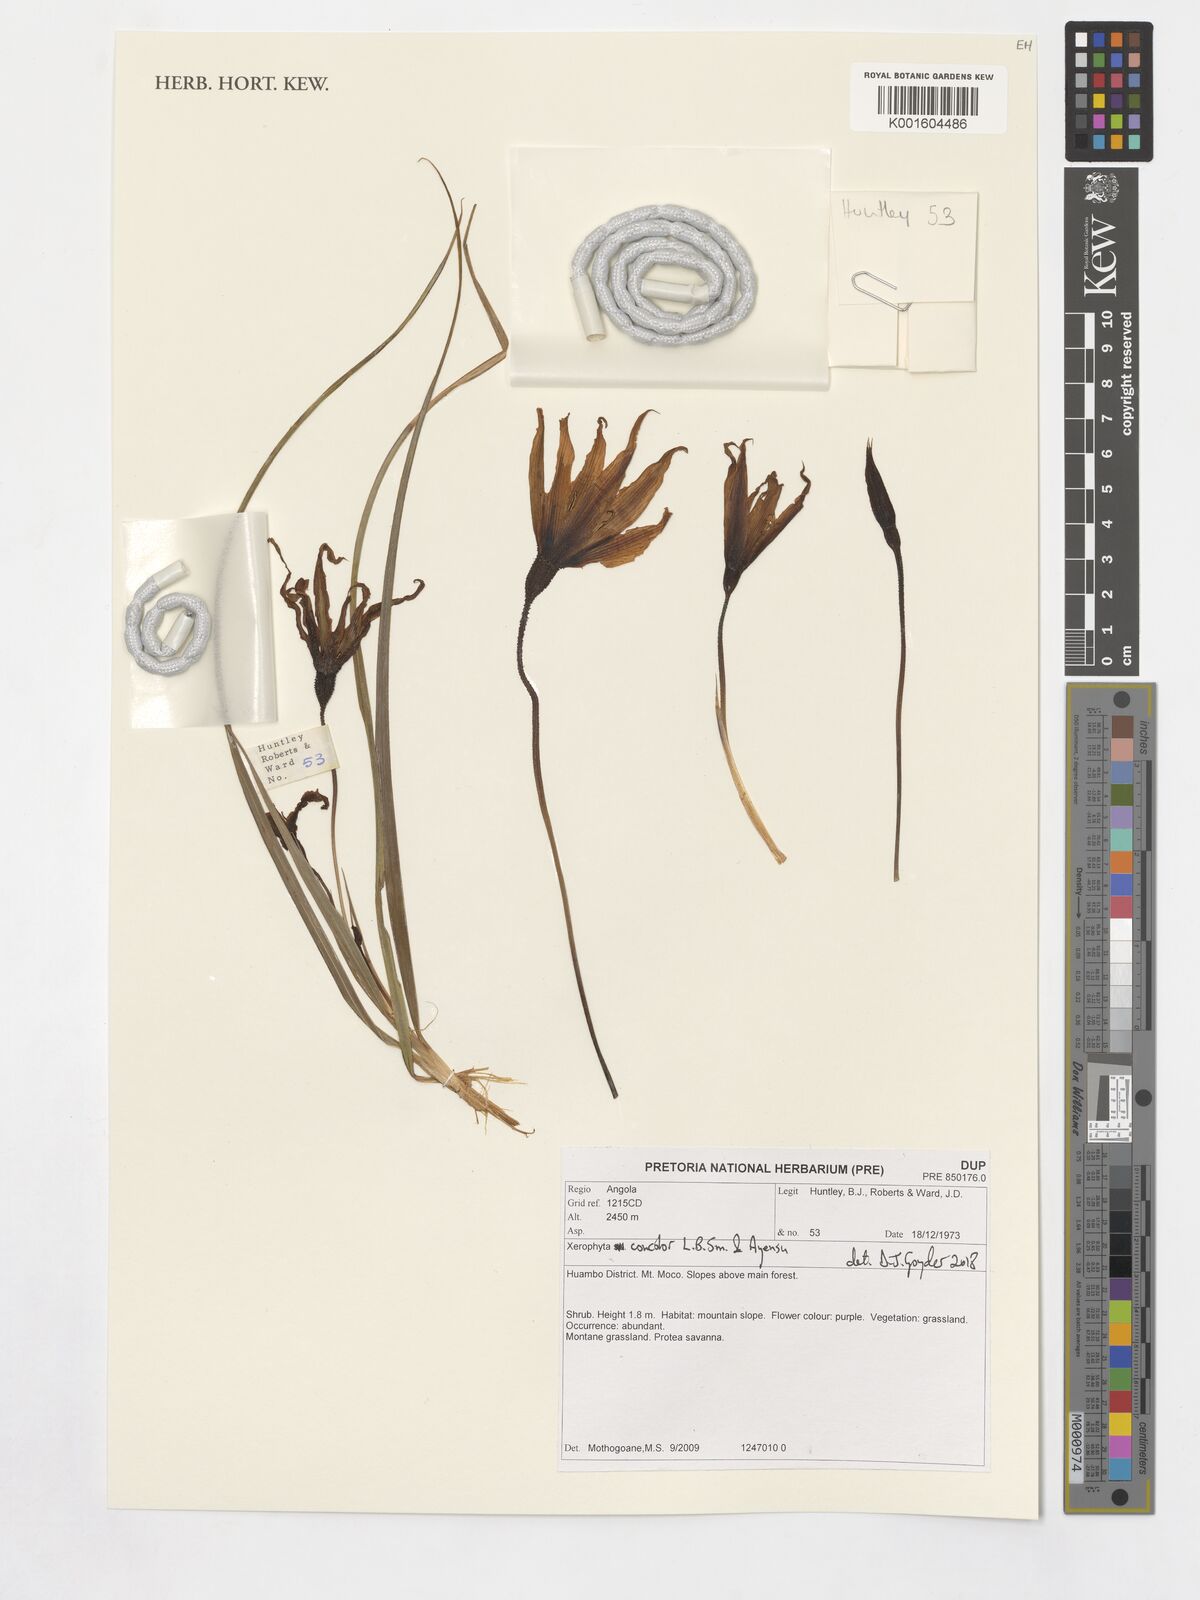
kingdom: Plantae
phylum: Tracheophyta
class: Liliopsida
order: Pandanales
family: Velloziaceae
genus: Xerophyta
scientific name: Xerophyta concolor
